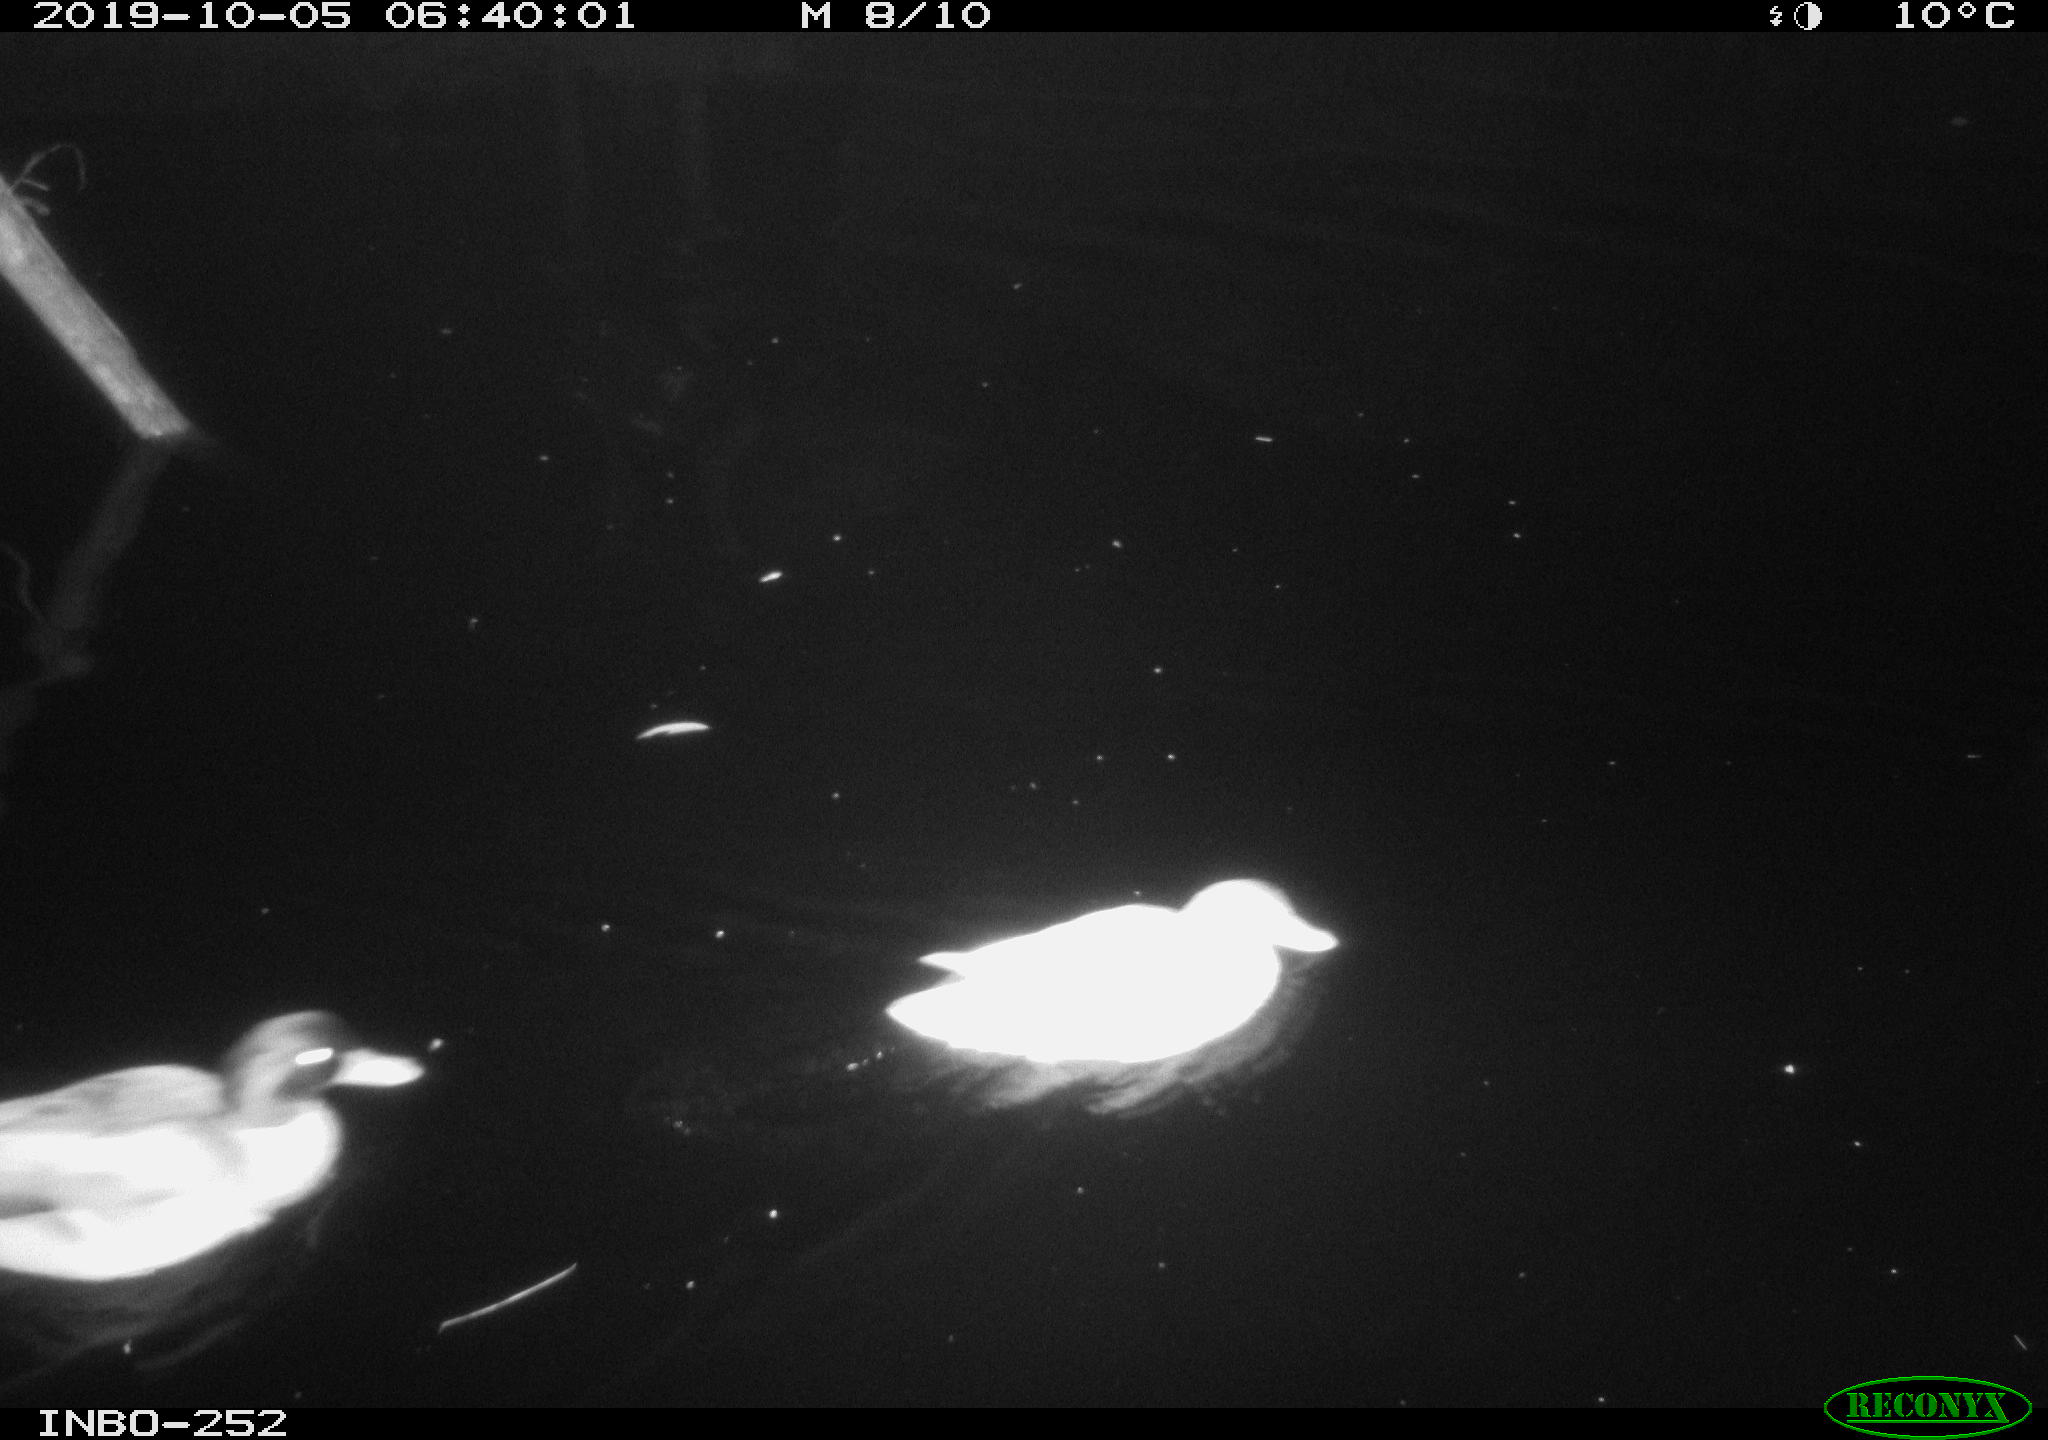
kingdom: Animalia
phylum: Chordata
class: Aves
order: Anseriformes
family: Anatidae
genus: Anas
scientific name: Anas platyrhynchos
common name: Mallard
